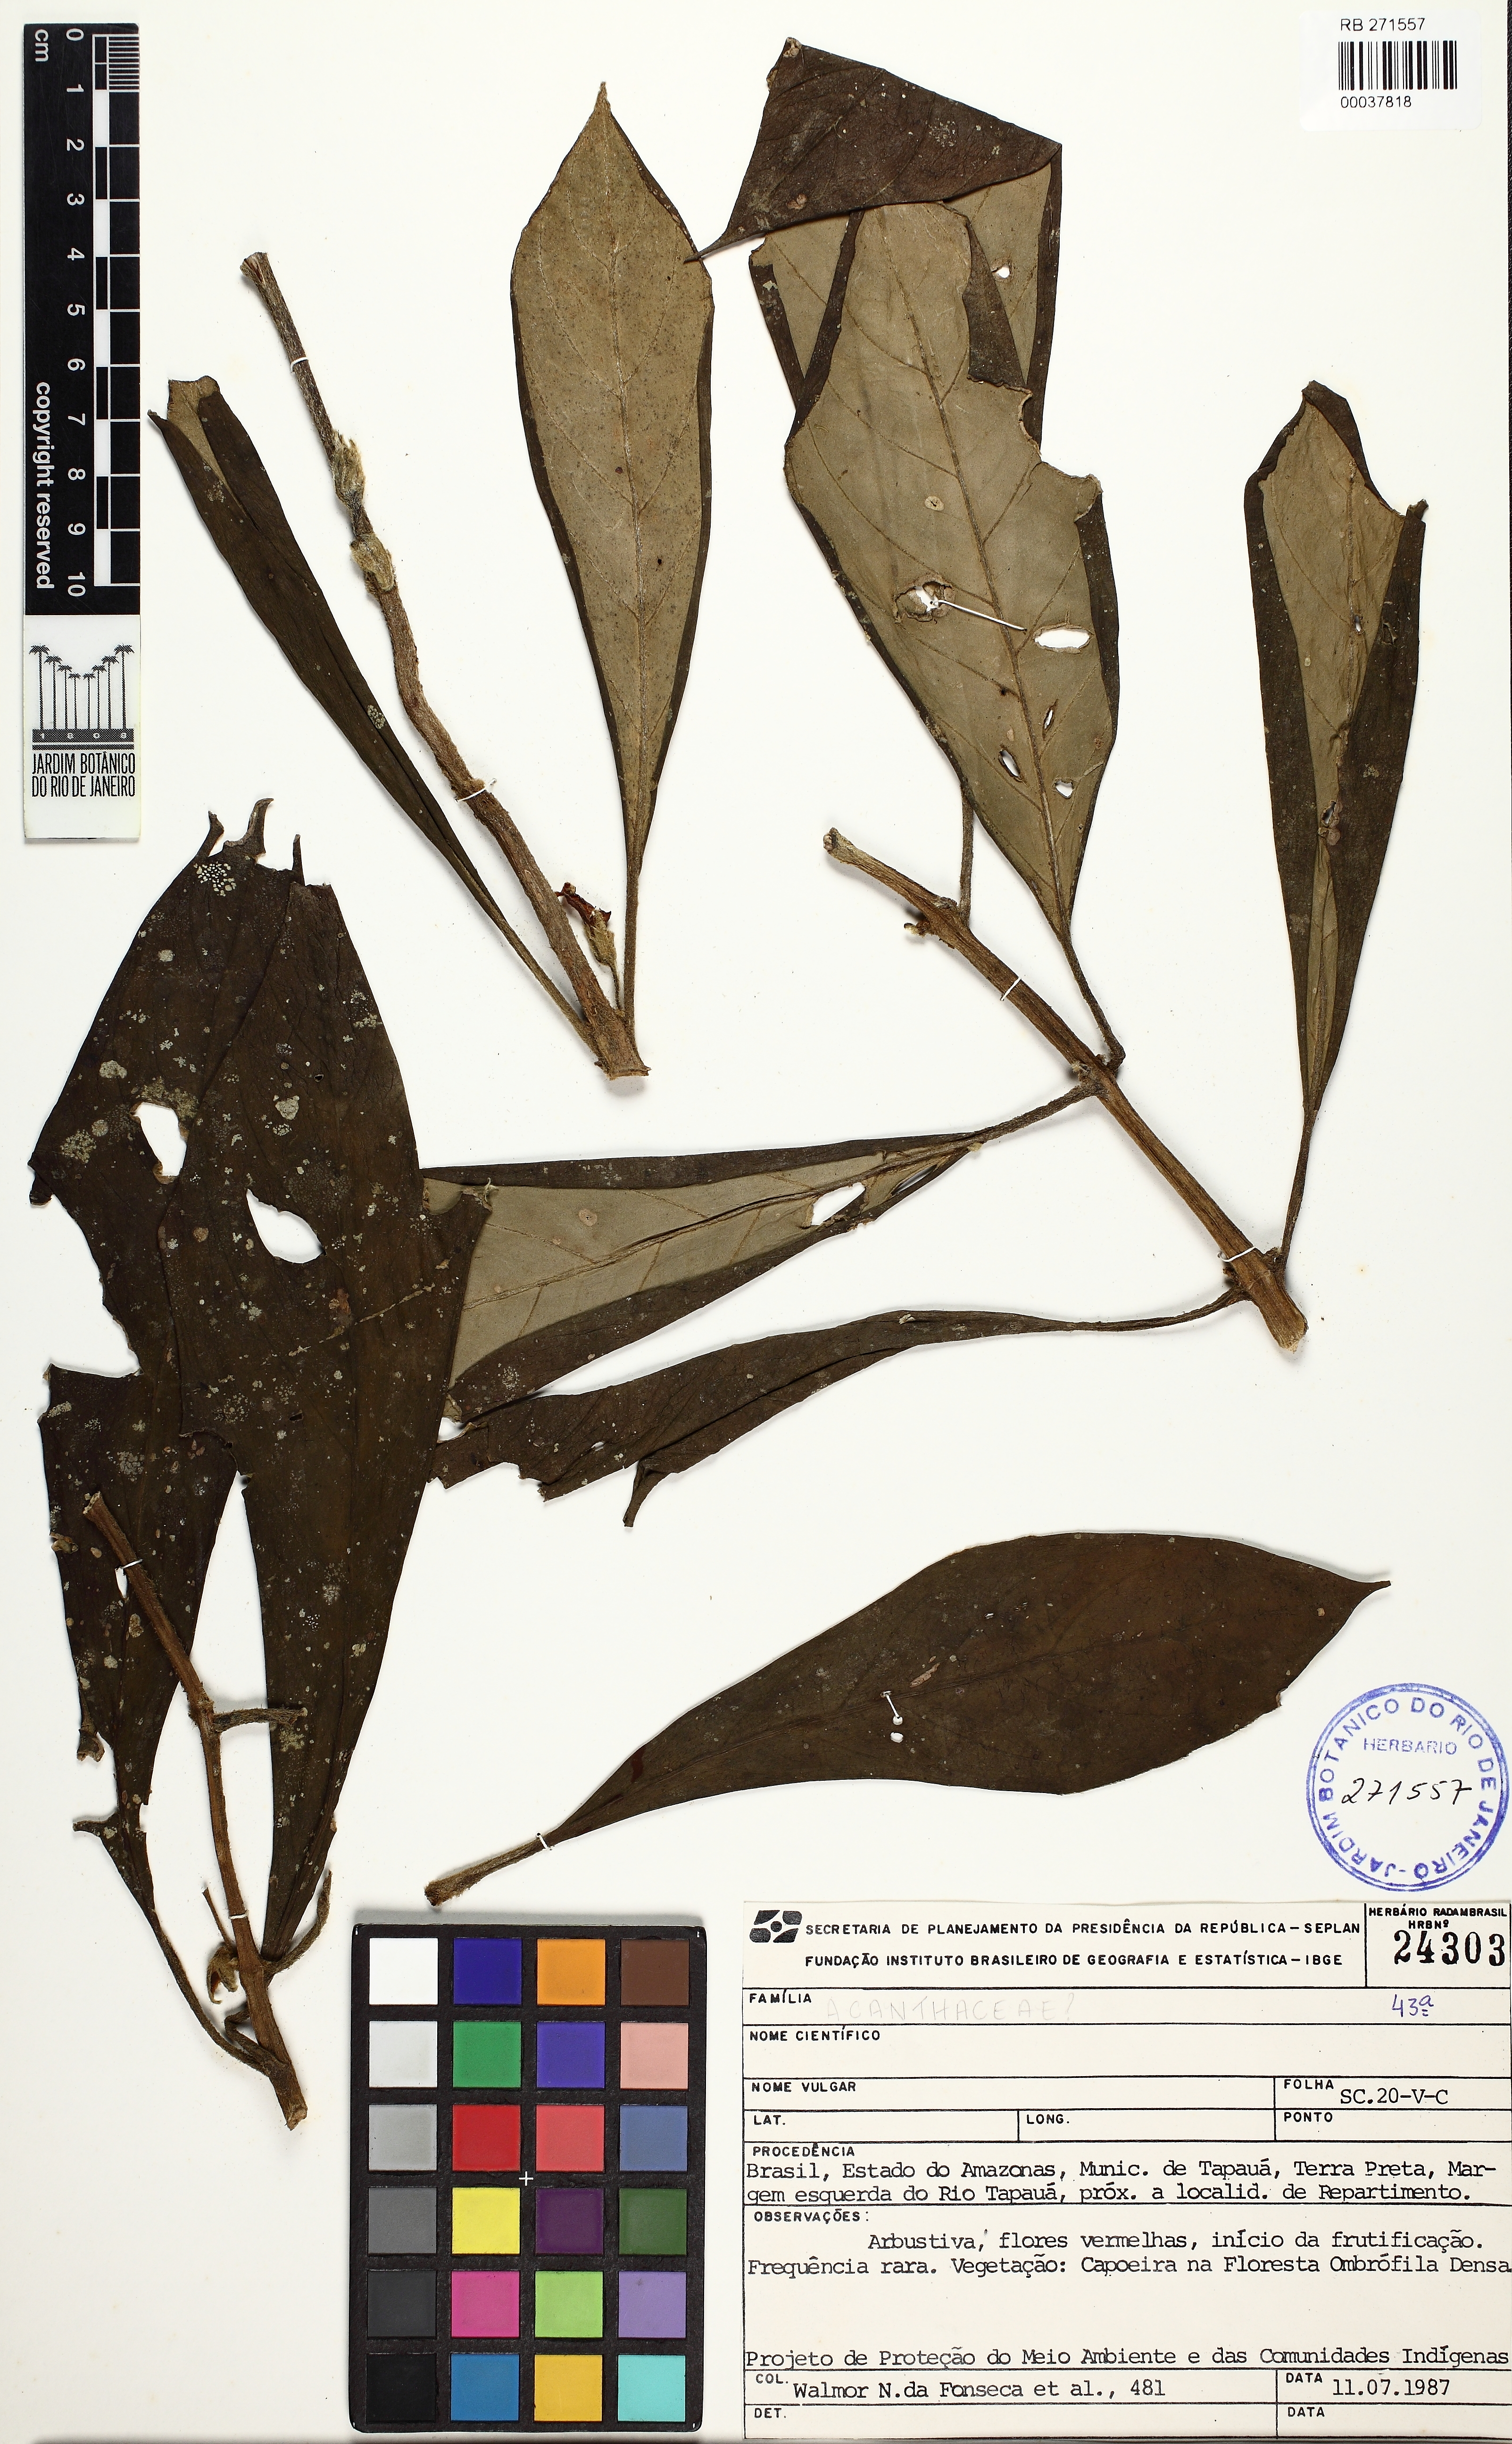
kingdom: Plantae
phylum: Tracheophyta
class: Magnoliopsida
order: Lamiales
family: Acanthaceae
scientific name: Acanthaceae
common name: Acanthaceae
